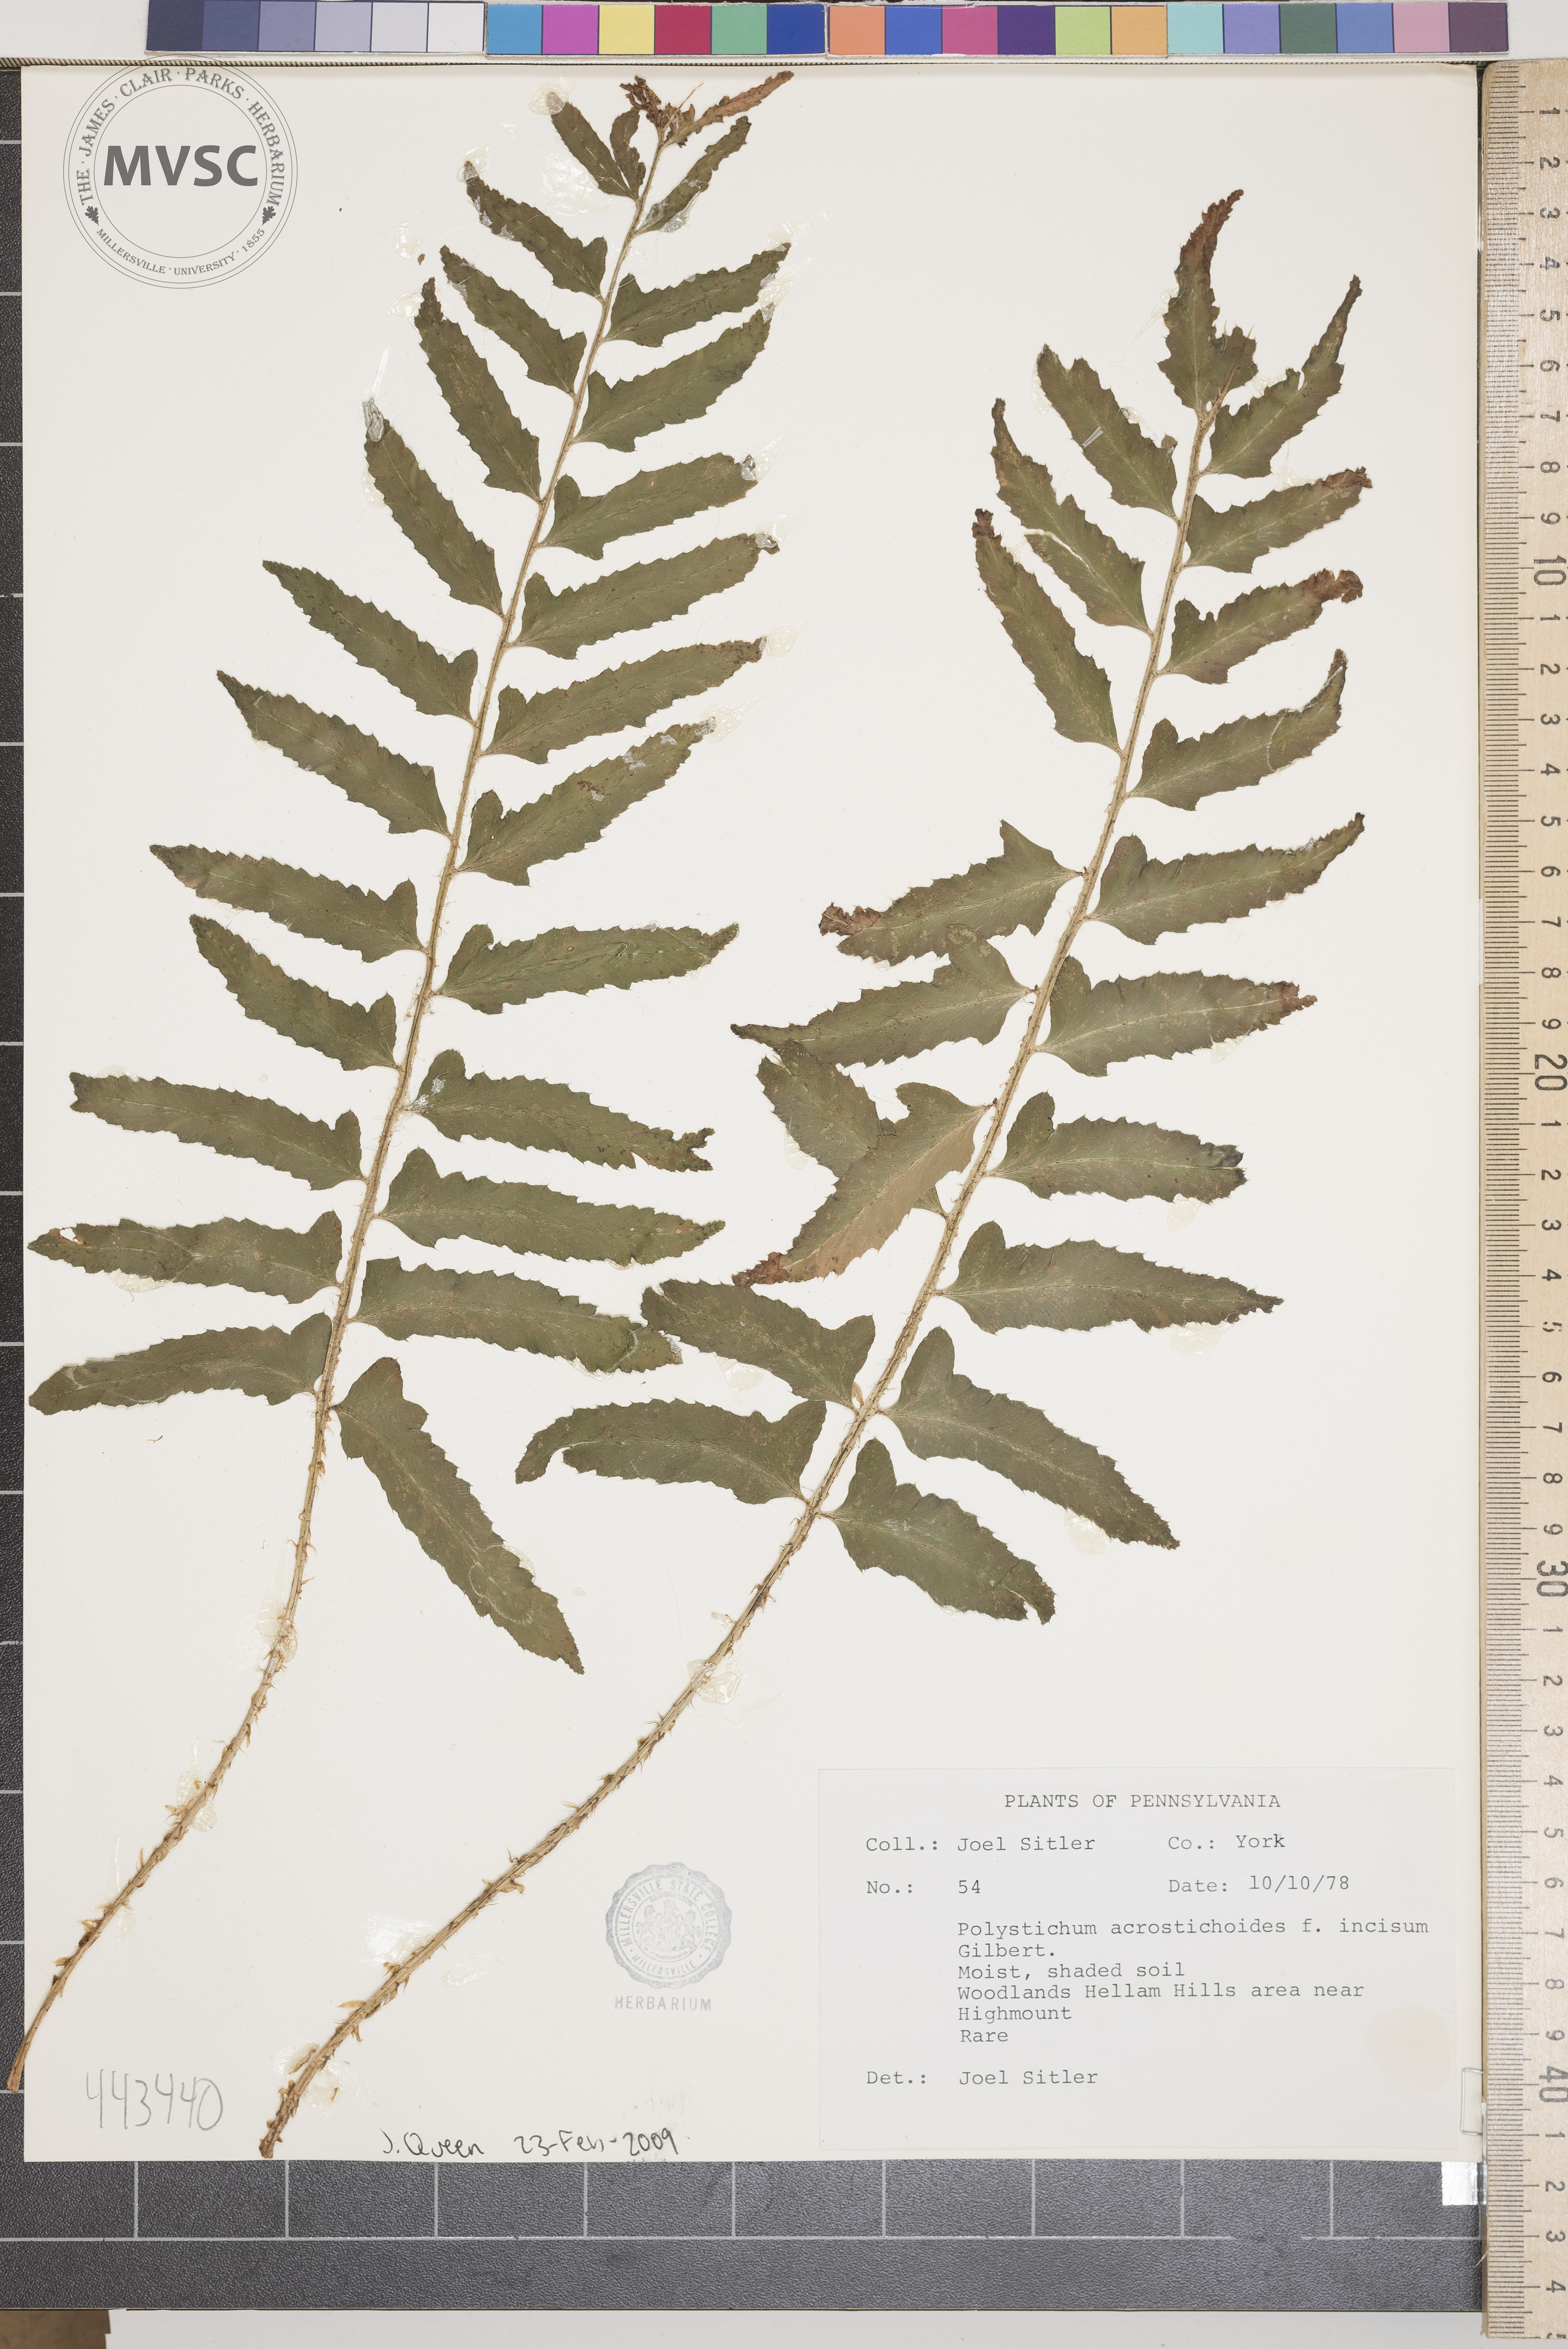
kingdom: Plantae
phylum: Tracheophyta
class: Polypodiopsida
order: Polypodiales
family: Dryopteridaceae
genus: Polystichum
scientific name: Polystichum acrostichoides
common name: Christmas fern
